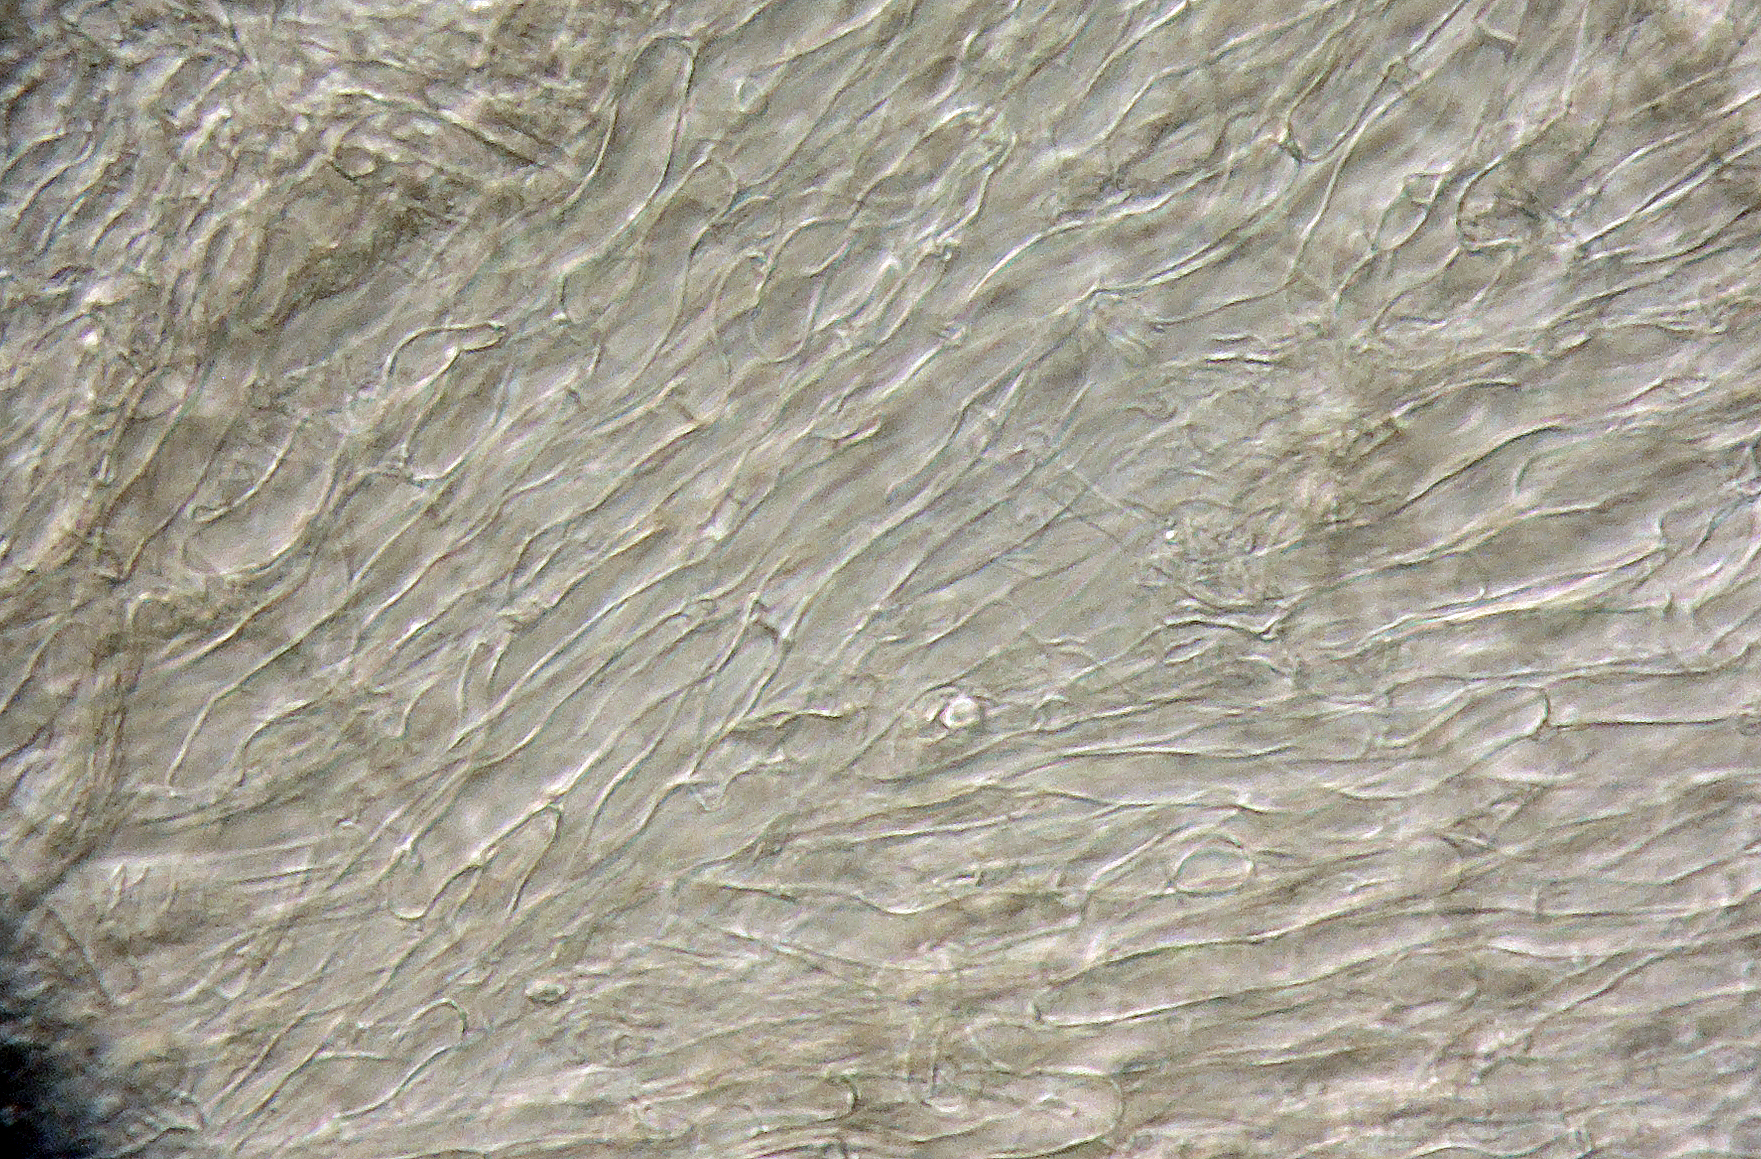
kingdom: Fungi
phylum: Basidiomycota
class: Agaricomycetes
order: Agaricales
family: Tricholomataceae
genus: Dermoloma
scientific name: Dermoloma
